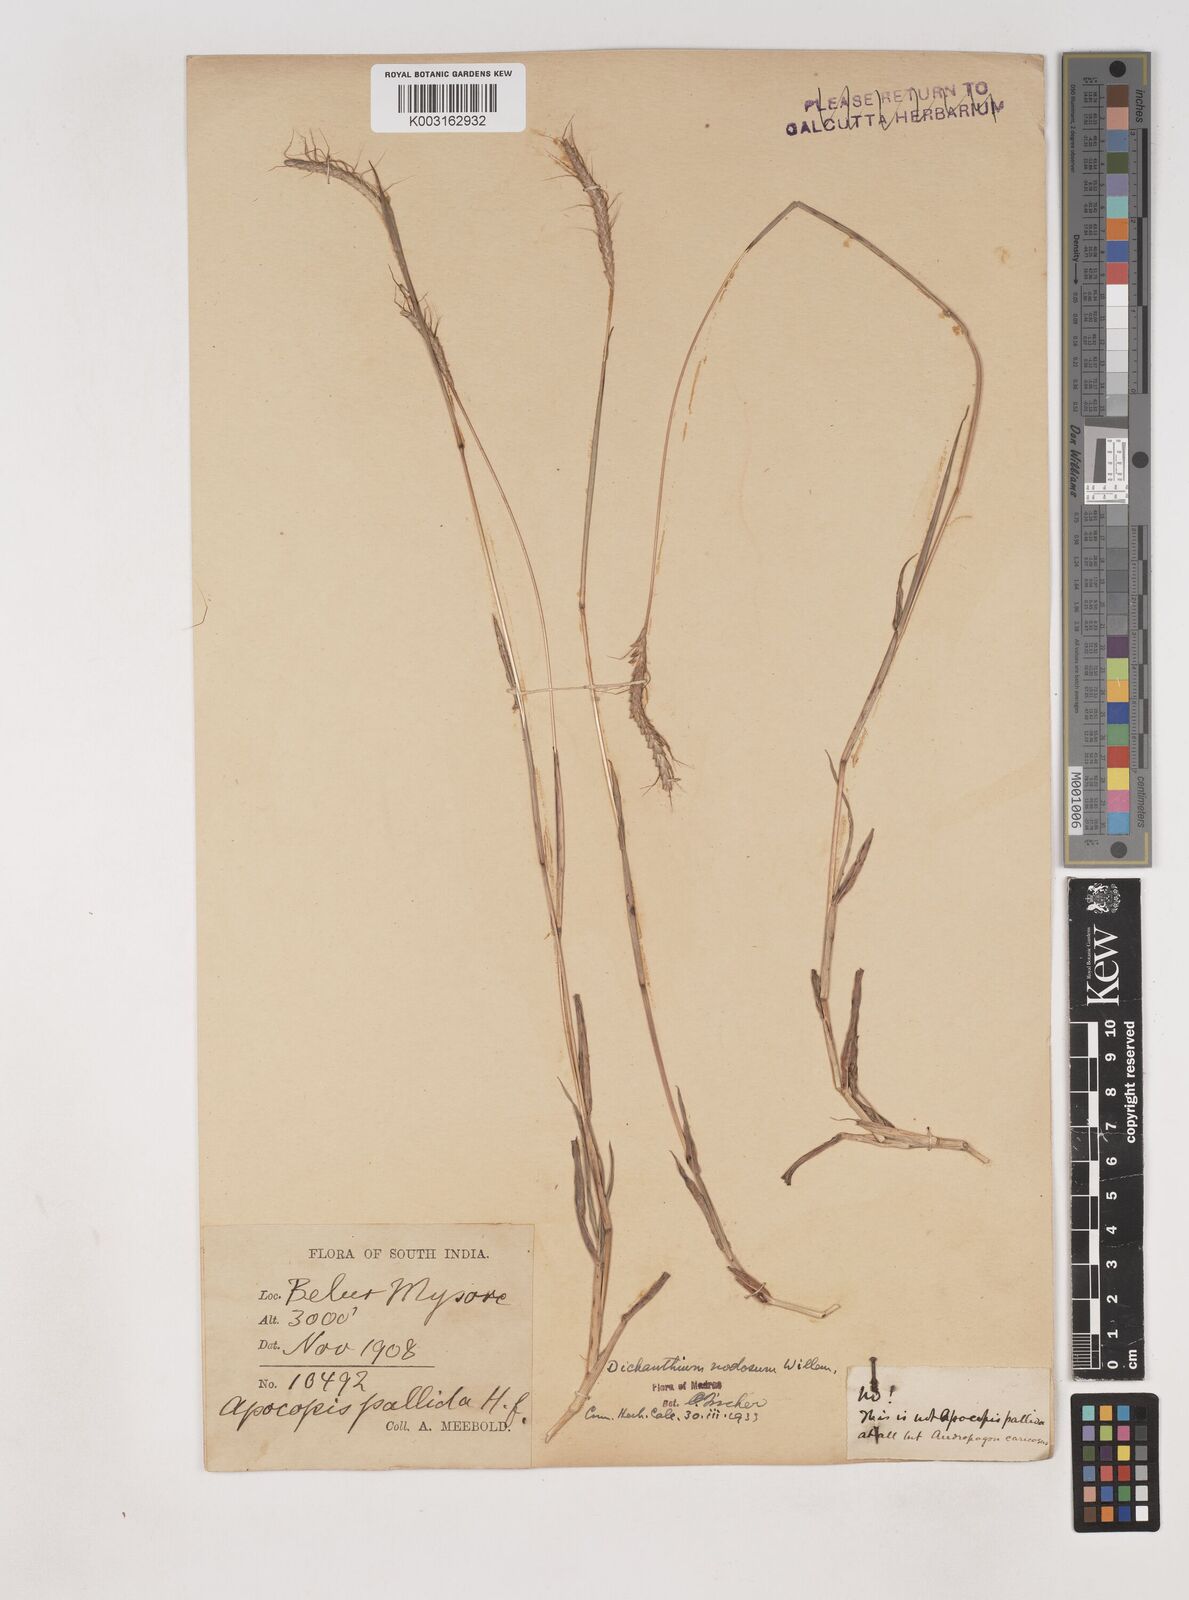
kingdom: Plantae
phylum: Tracheophyta
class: Liliopsida
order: Poales
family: Poaceae
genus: Dichanthium
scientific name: Dichanthium aristatum
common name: Angleton bluestem
